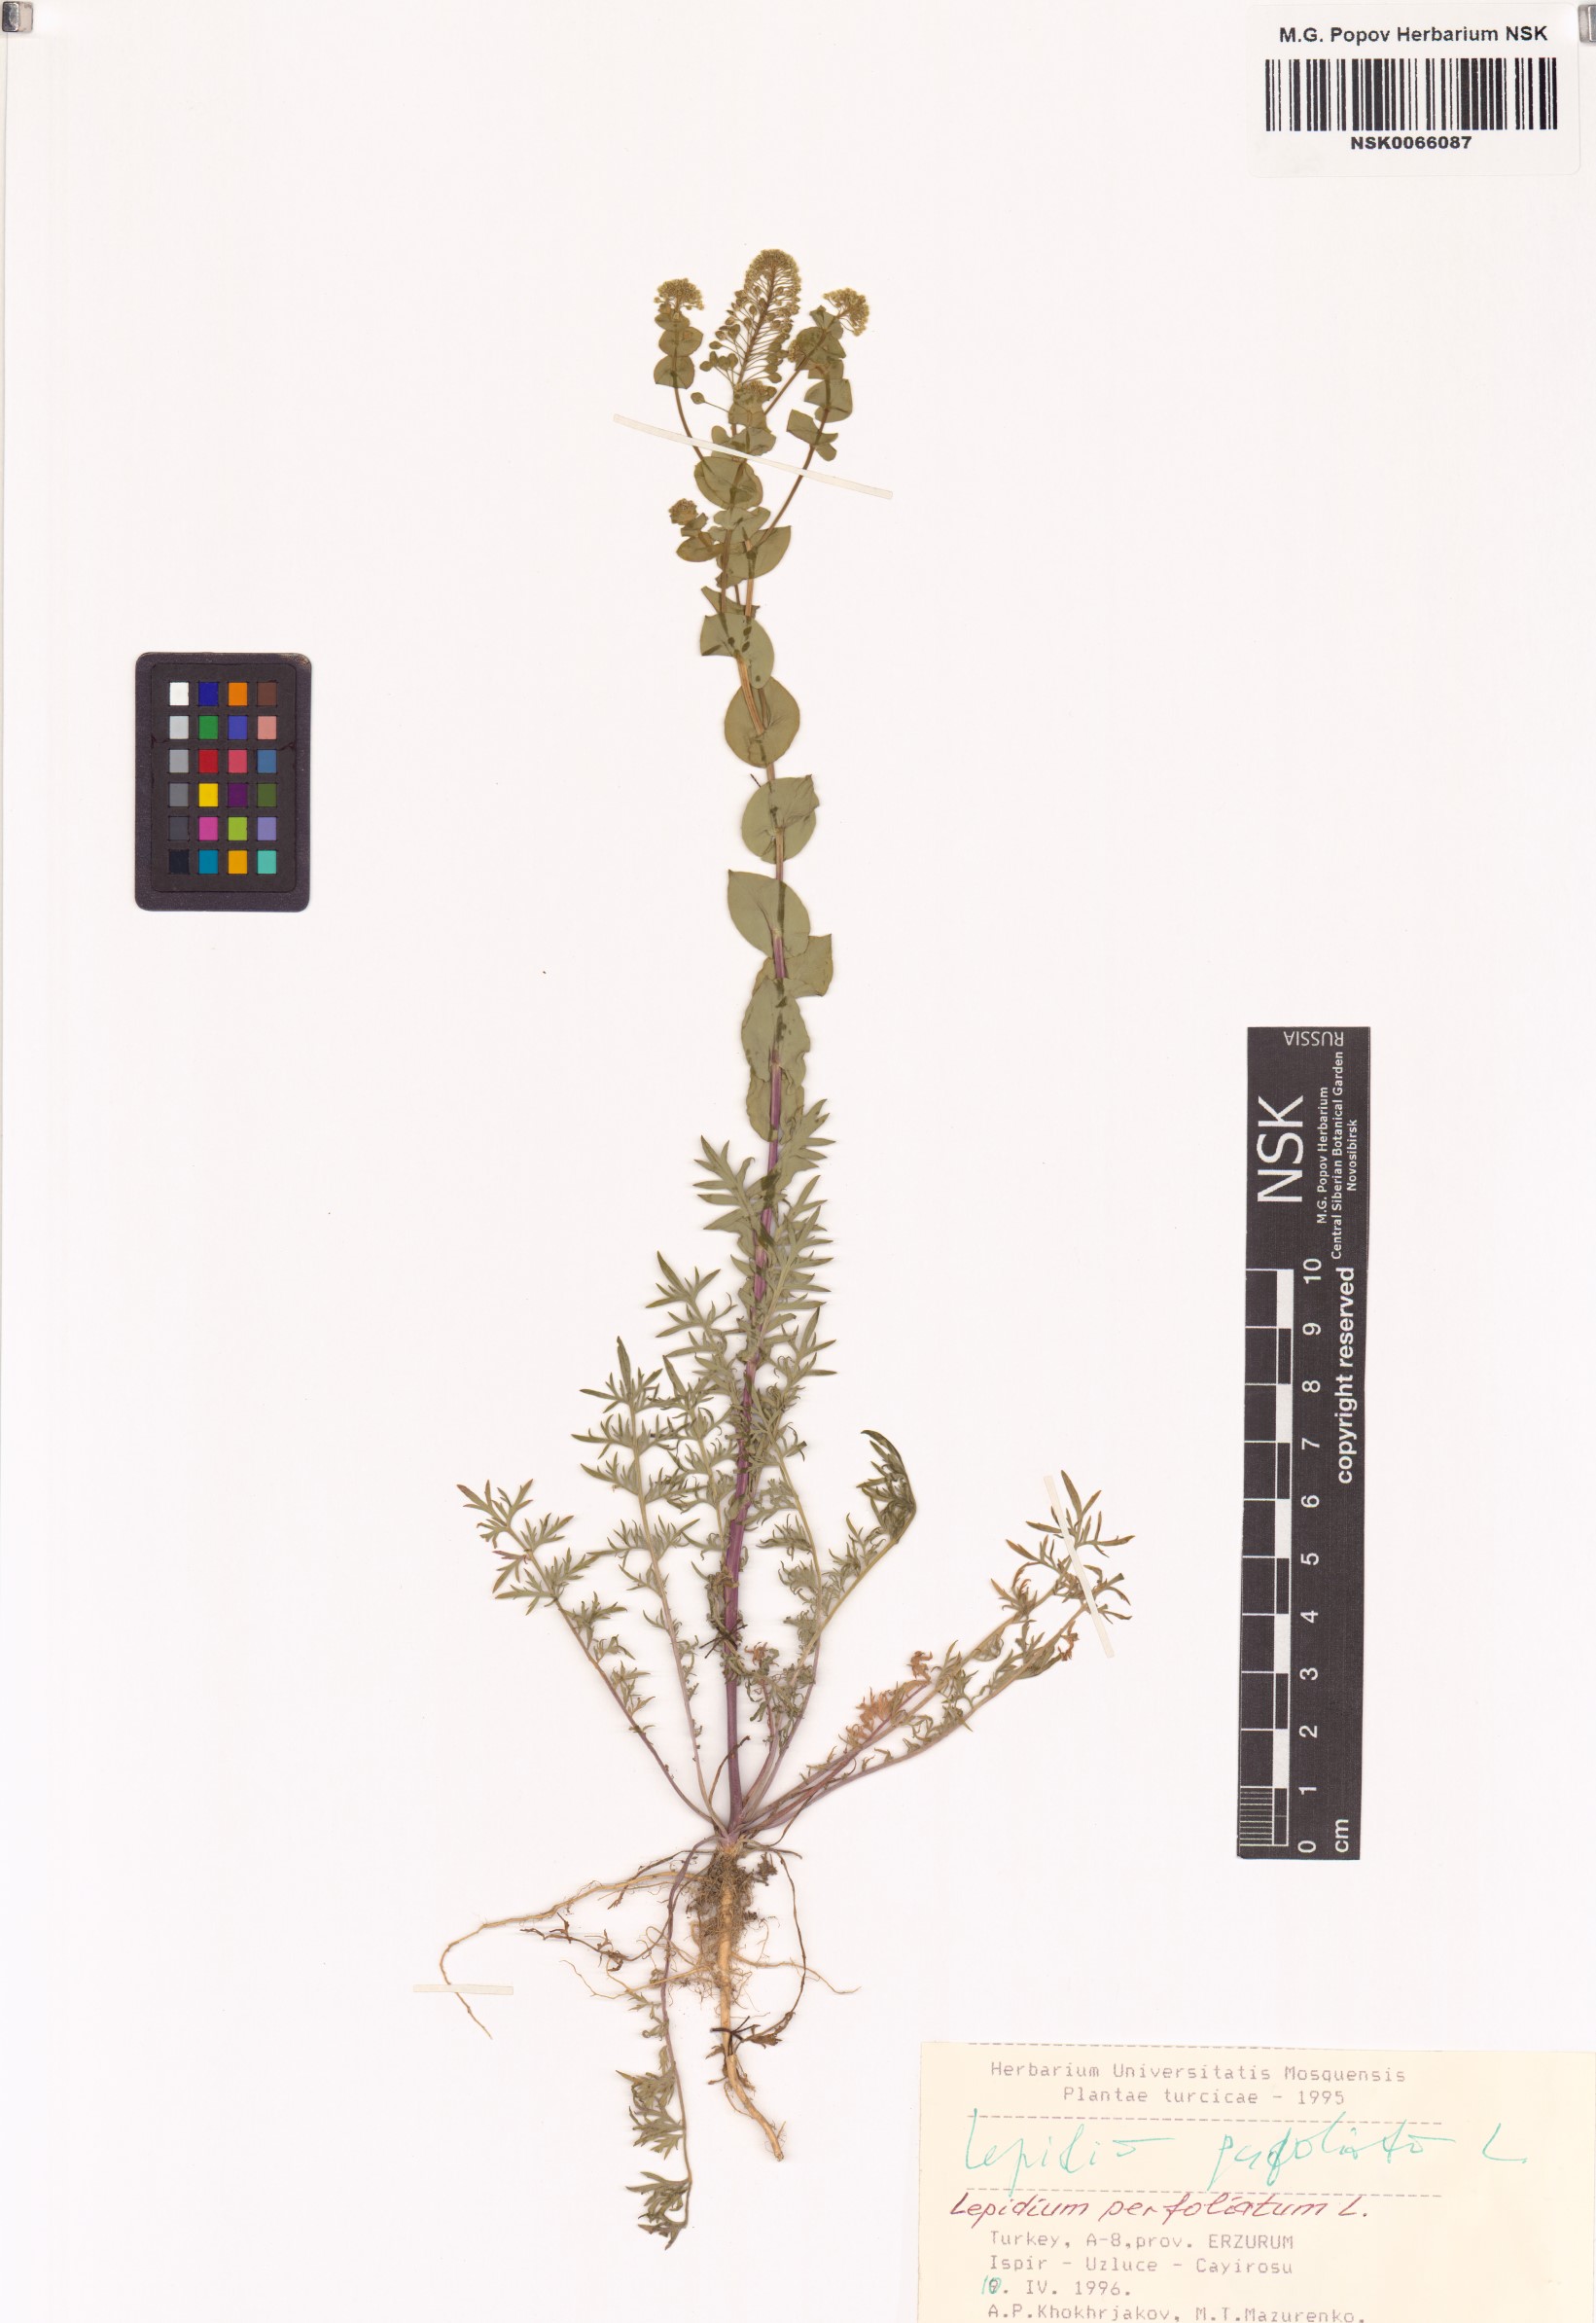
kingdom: Plantae
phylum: Tracheophyta
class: Magnoliopsida
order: Brassicales
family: Brassicaceae
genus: Lepidium
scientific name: Lepidium perfoliatum
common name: Perfoliate pepperwort
